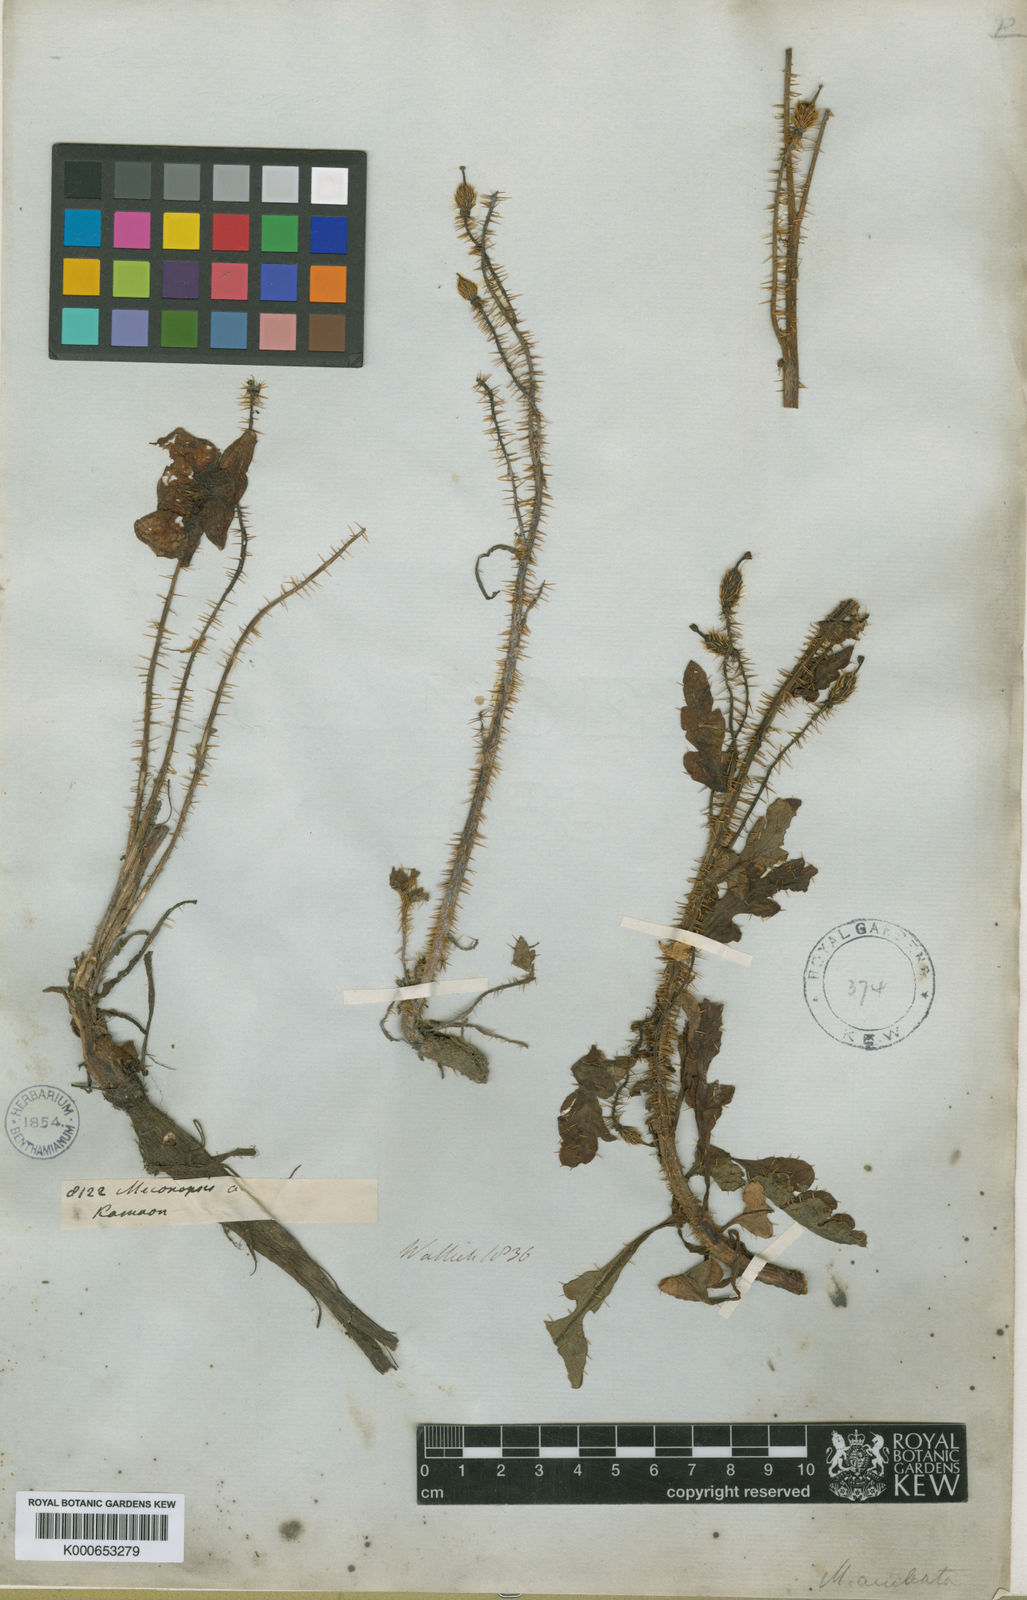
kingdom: Plantae
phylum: Tracheophyta
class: Magnoliopsida
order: Ranunculales
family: Papaveraceae
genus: Meconopsis
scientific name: Meconopsis aculeata
